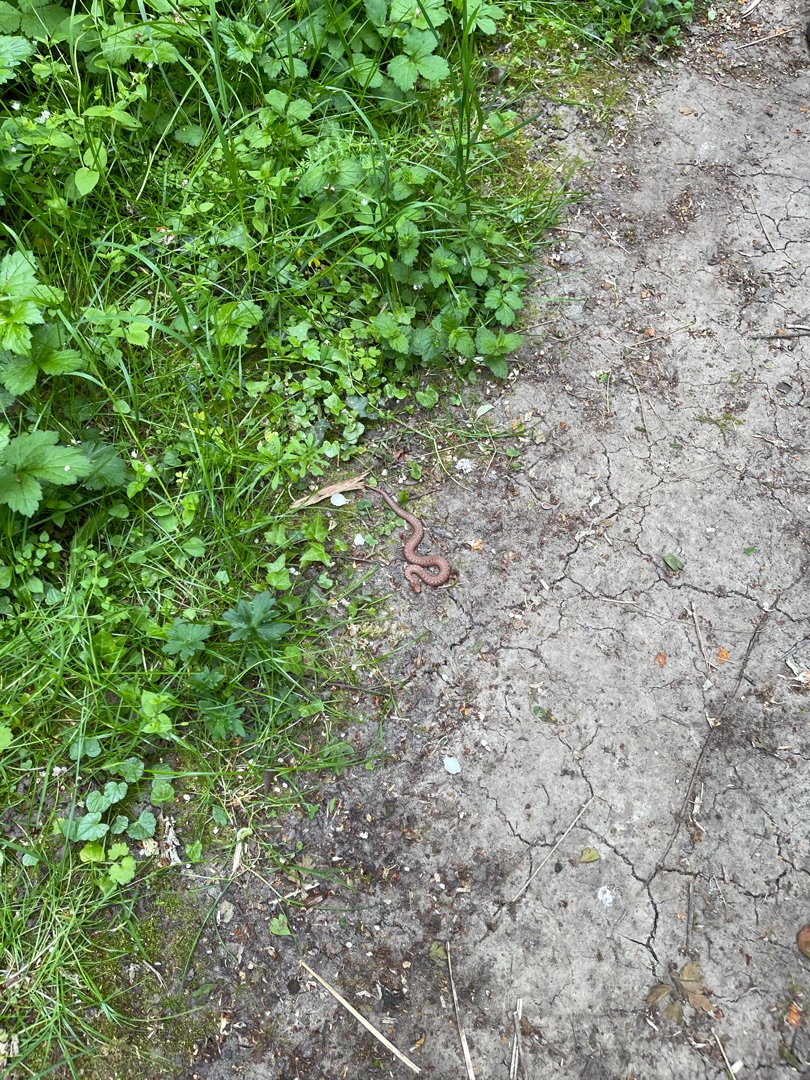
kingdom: Animalia
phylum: Chordata
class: Squamata
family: Viperidae
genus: Vipera
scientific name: Vipera berus
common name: Hugorm
